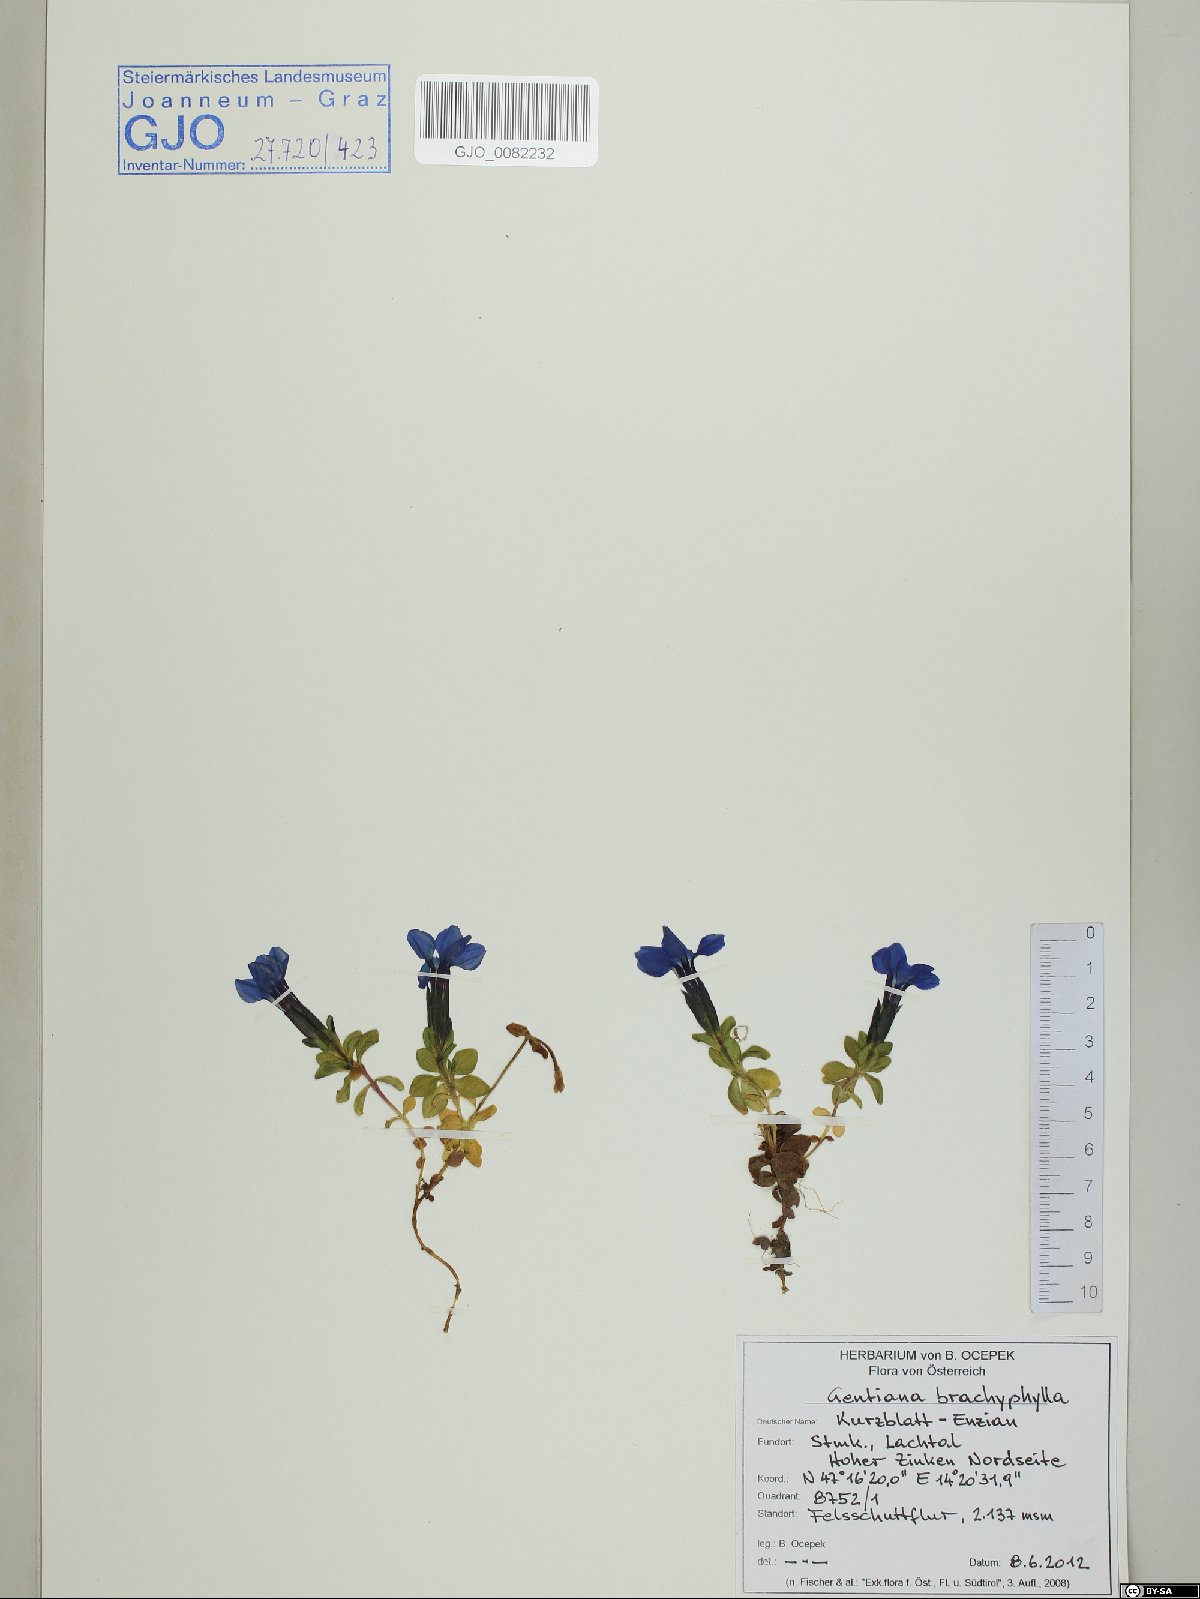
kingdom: Plantae
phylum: Tracheophyta
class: Magnoliopsida
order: Gentianales
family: Gentianaceae
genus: Gentiana
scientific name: Gentiana brachyphylla
